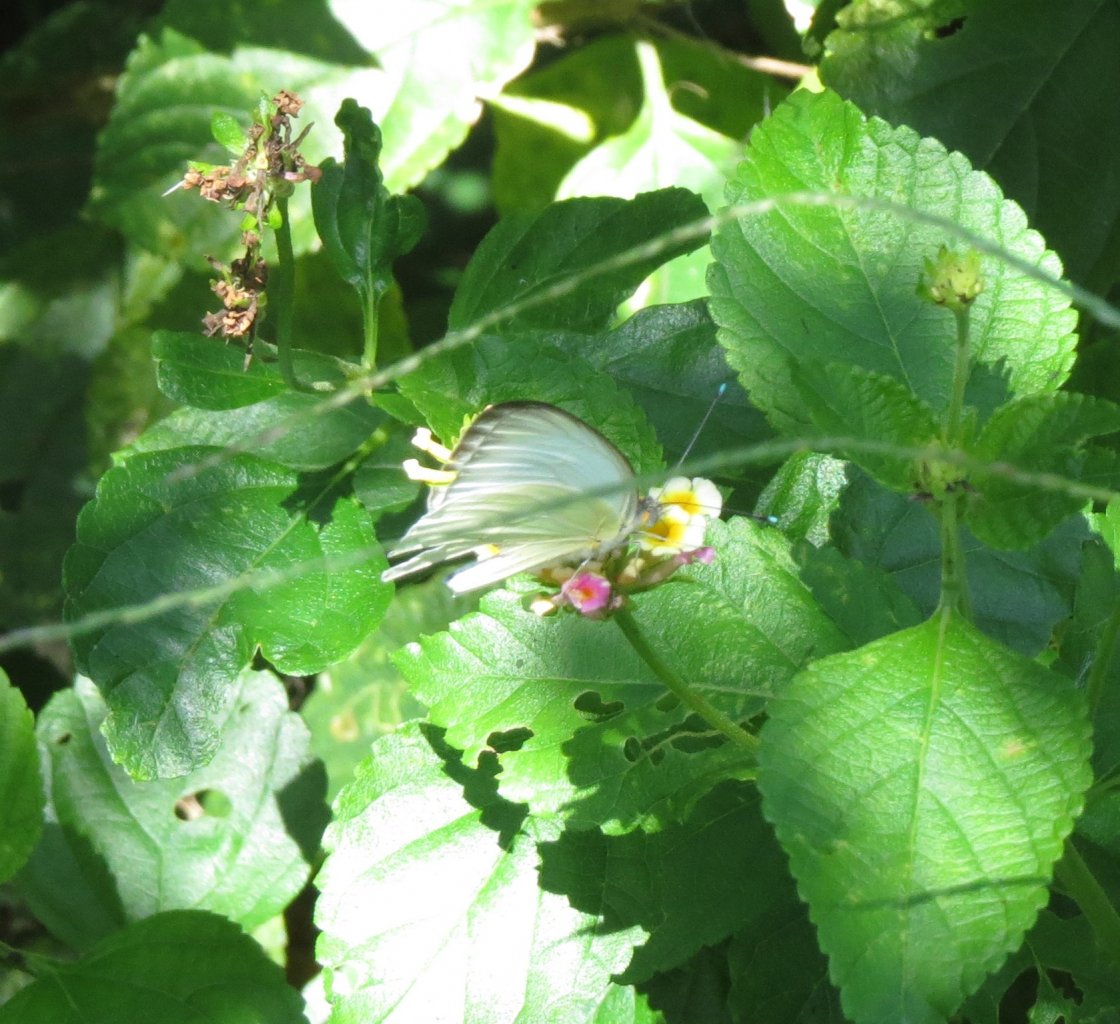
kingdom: Animalia
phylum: Arthropoda
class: Insecta
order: Lepidoptera
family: Pieridae
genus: Ascia
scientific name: Ascia monuste
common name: Great Southern White
